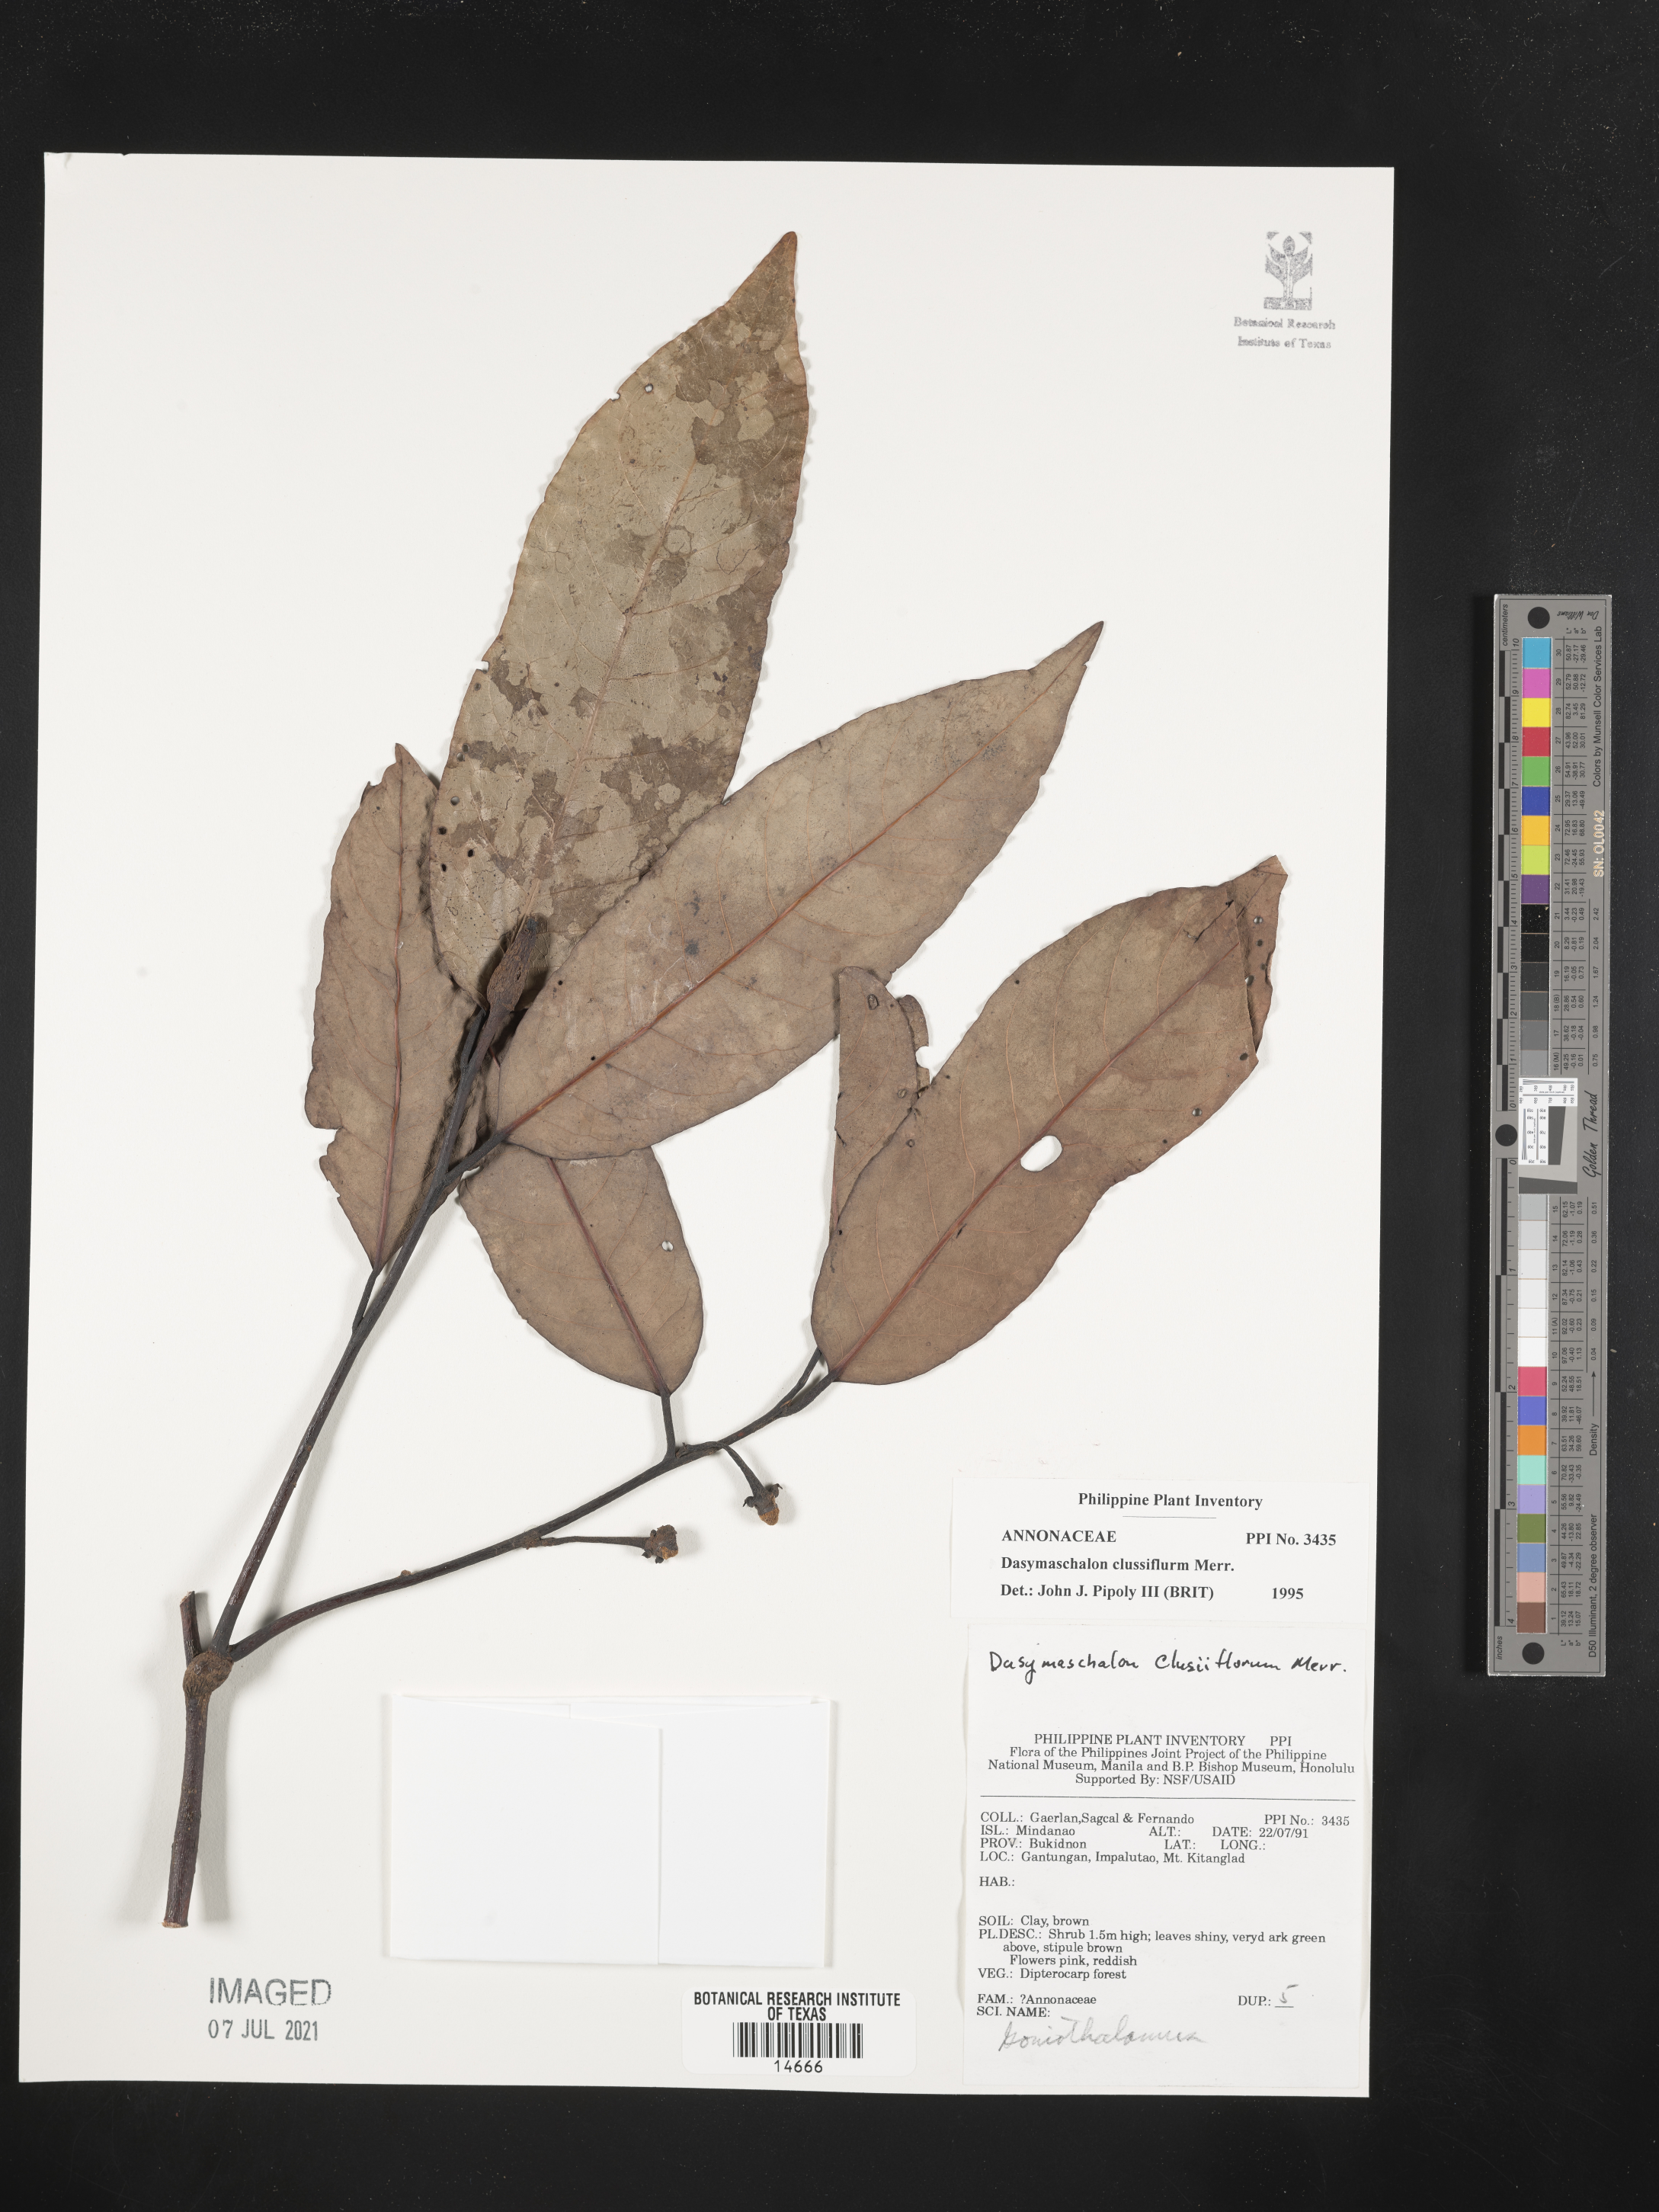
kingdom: Plantae
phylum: Tracheophyta
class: Magnoliopsida
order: Magnoliales
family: Annonaceae
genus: Dasymaschalon
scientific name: Dasymaschalon clusiflorum
